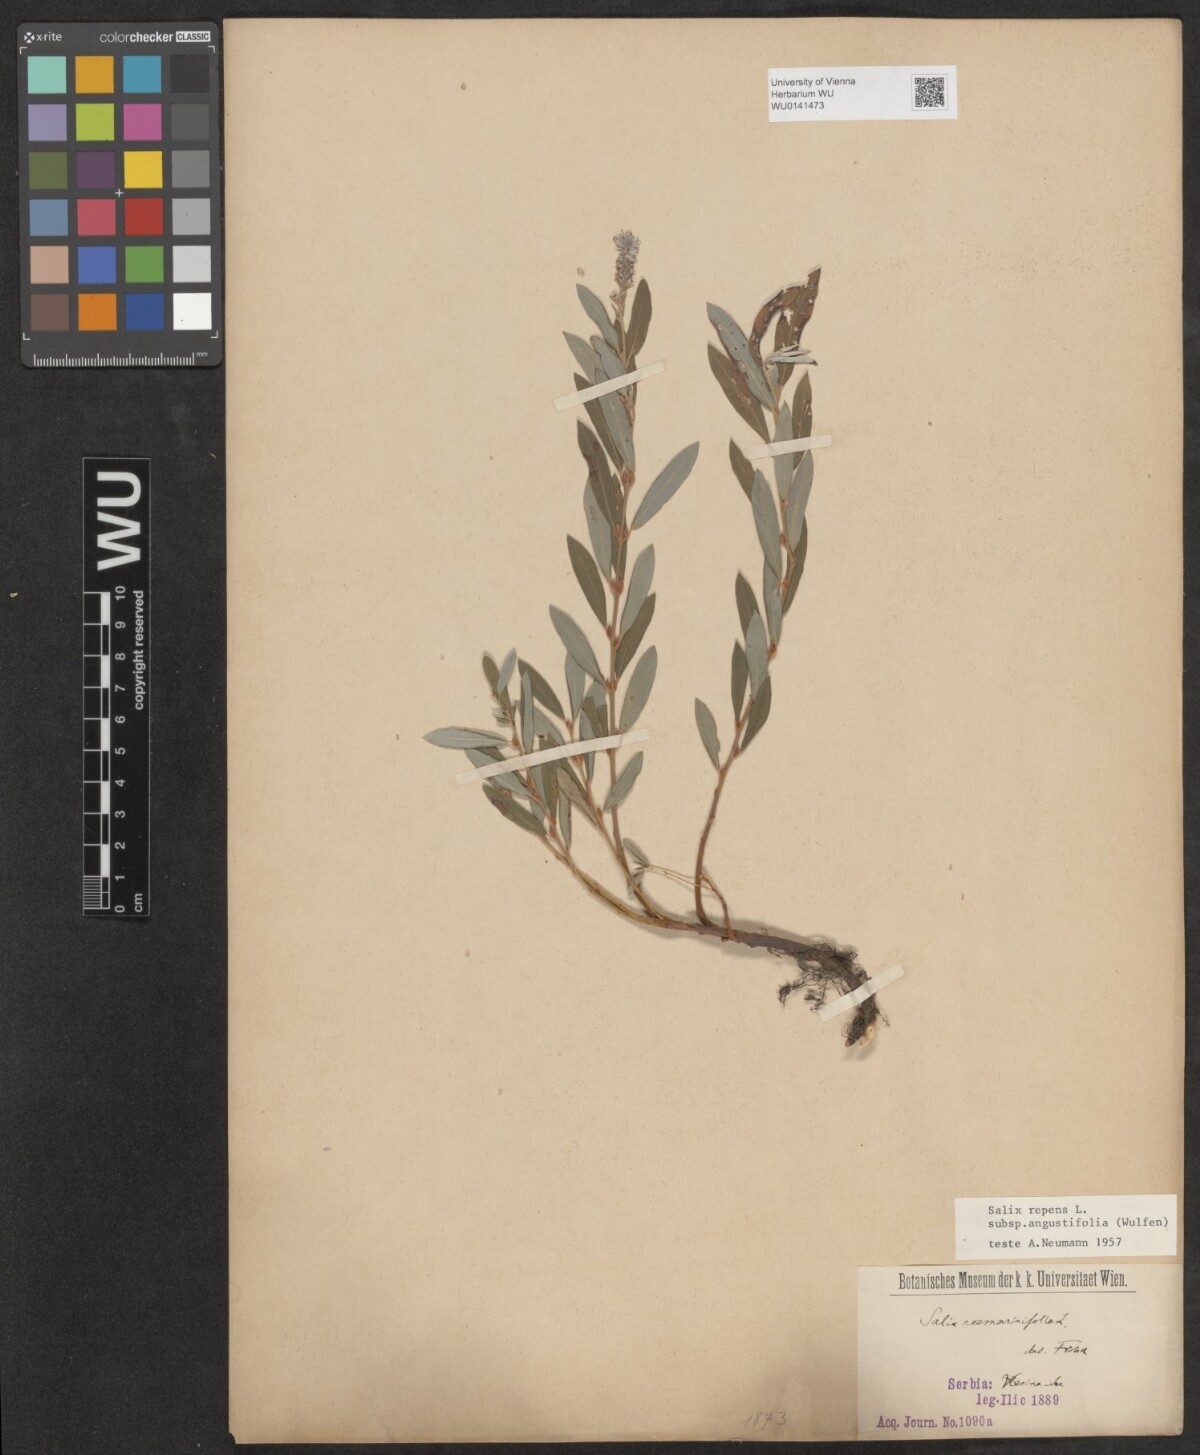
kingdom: Plantae
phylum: Tracheophyta
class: Magnoliopsida
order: Malpighiales
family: Salicaceae
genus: Salix
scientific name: Salix rosmarinifolia
